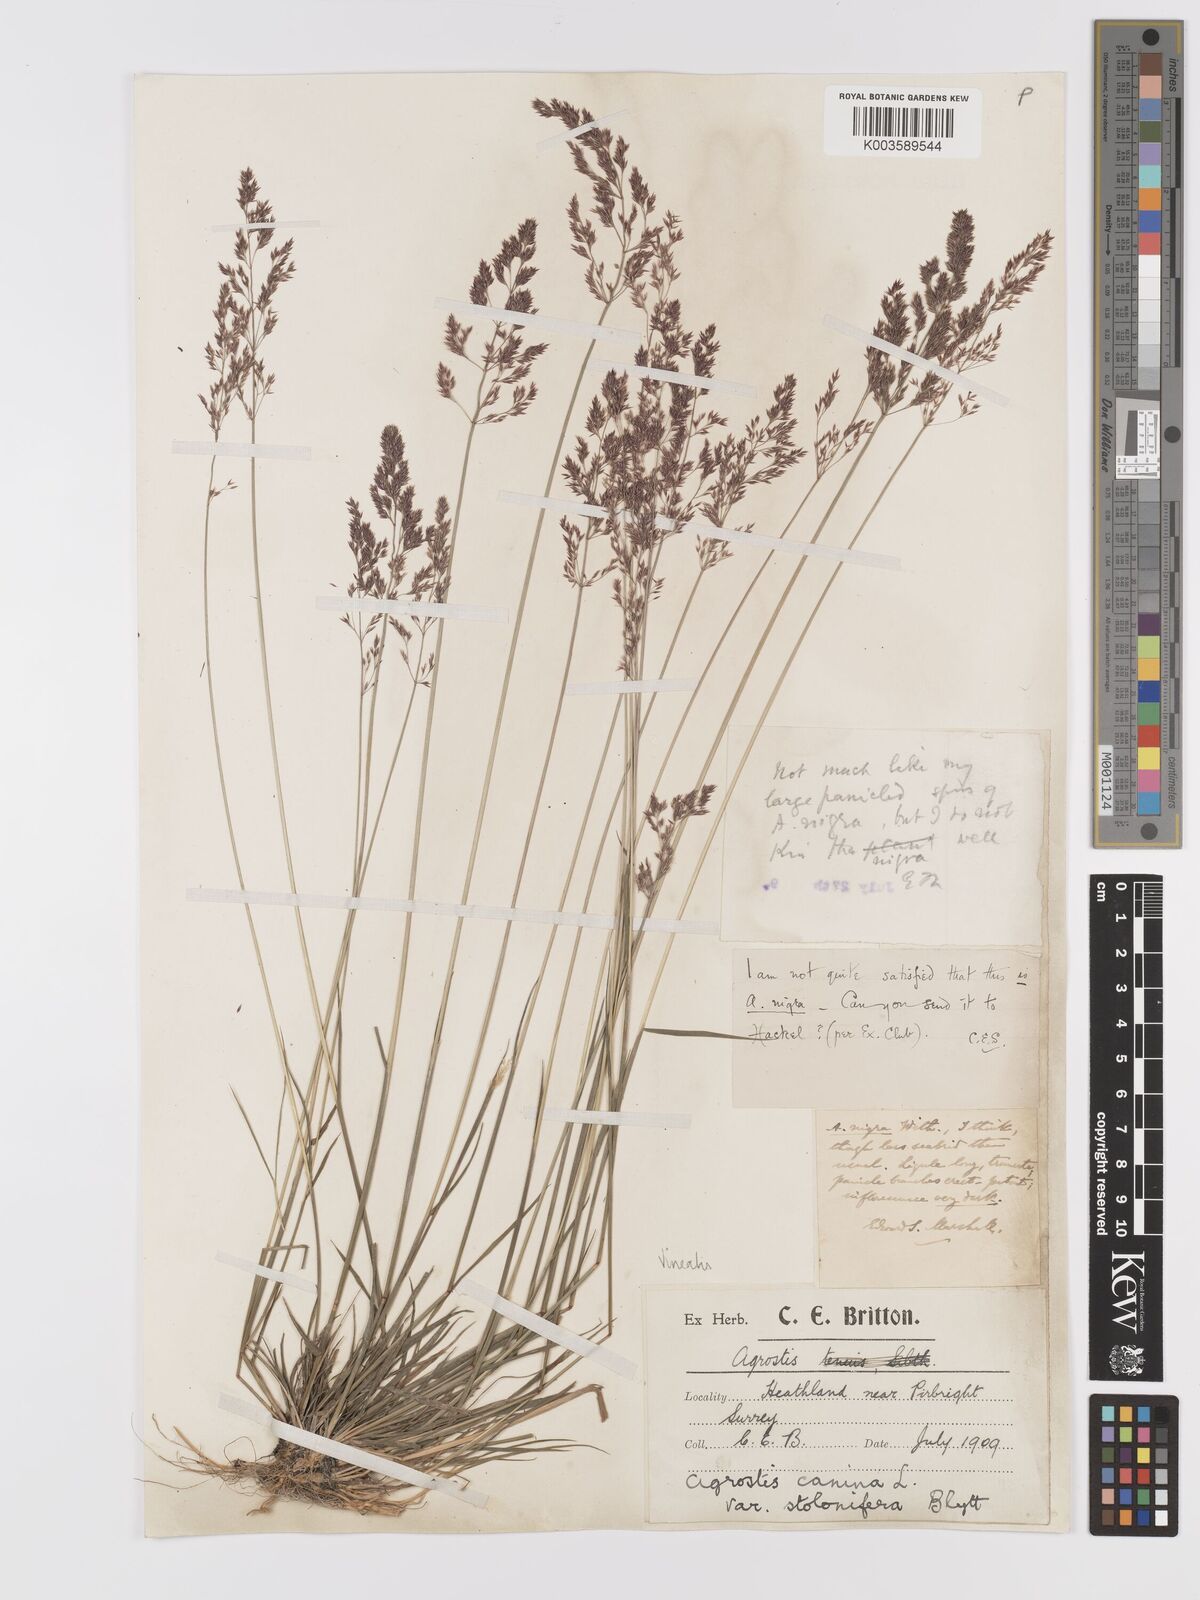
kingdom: Plantae
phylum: Tracheophyta
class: Liliopsida
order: Poales
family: Poaceae
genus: Agrostis
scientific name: Agrostis
